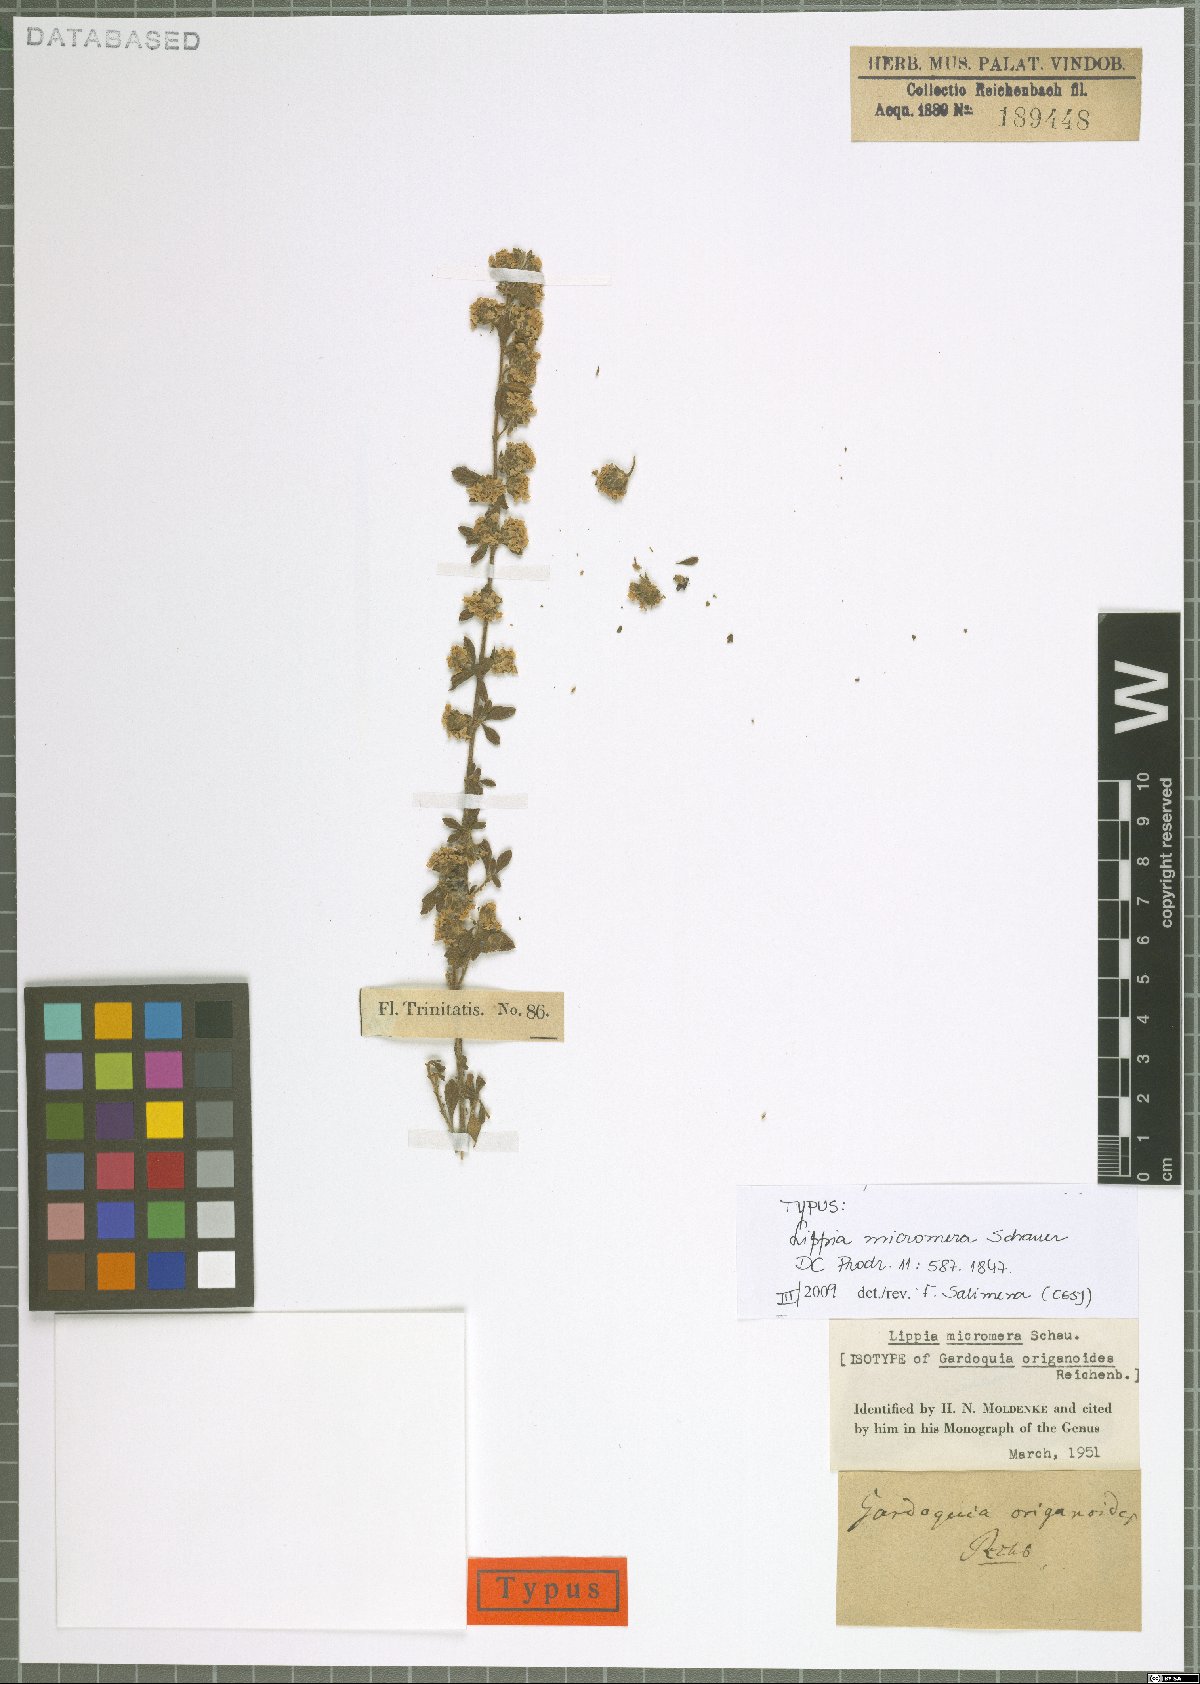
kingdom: Plantae
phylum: Tracheophyta
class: Magnoliopsida
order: Lamiales
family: Verbenaceae
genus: Lippia
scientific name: Lippia micromera
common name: Puerto rican oregano
